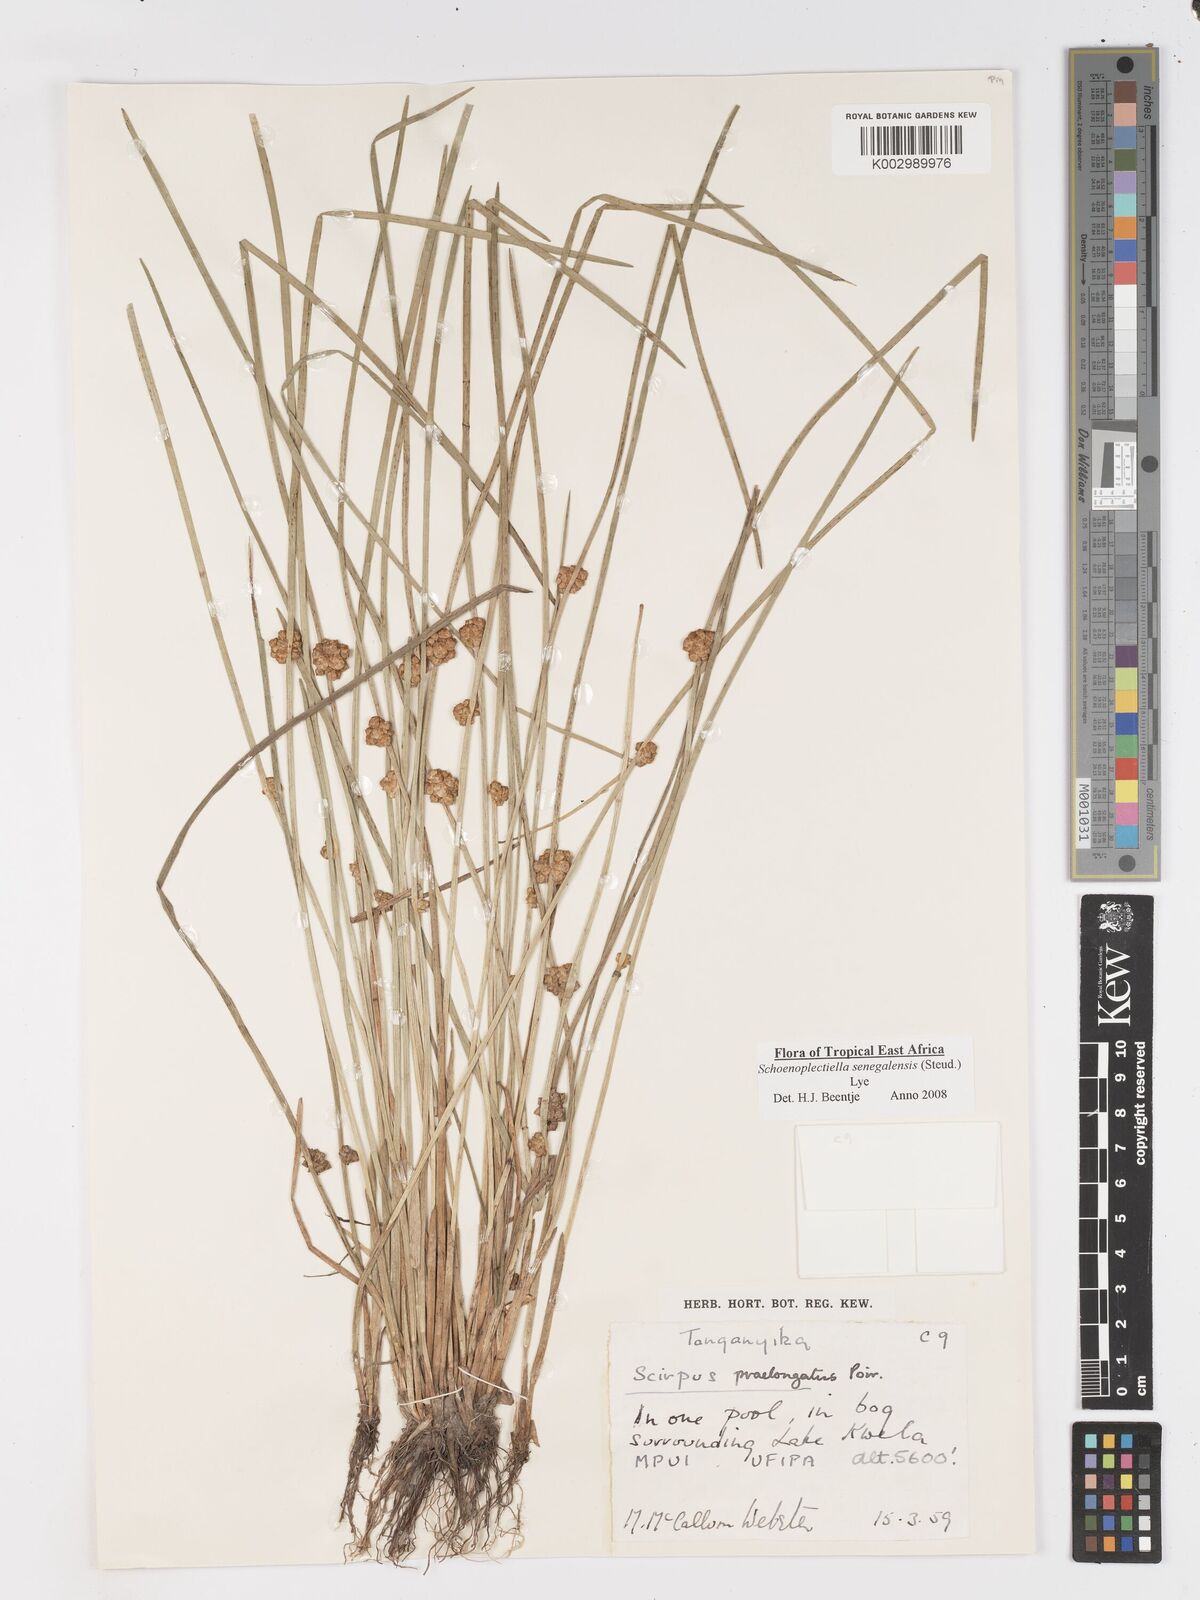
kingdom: Plantae
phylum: Tracheophyta
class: Liliopsida
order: Poales
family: Cyperaceae
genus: Schoenoplectiella
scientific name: Schoenoplectiella senegalensis
